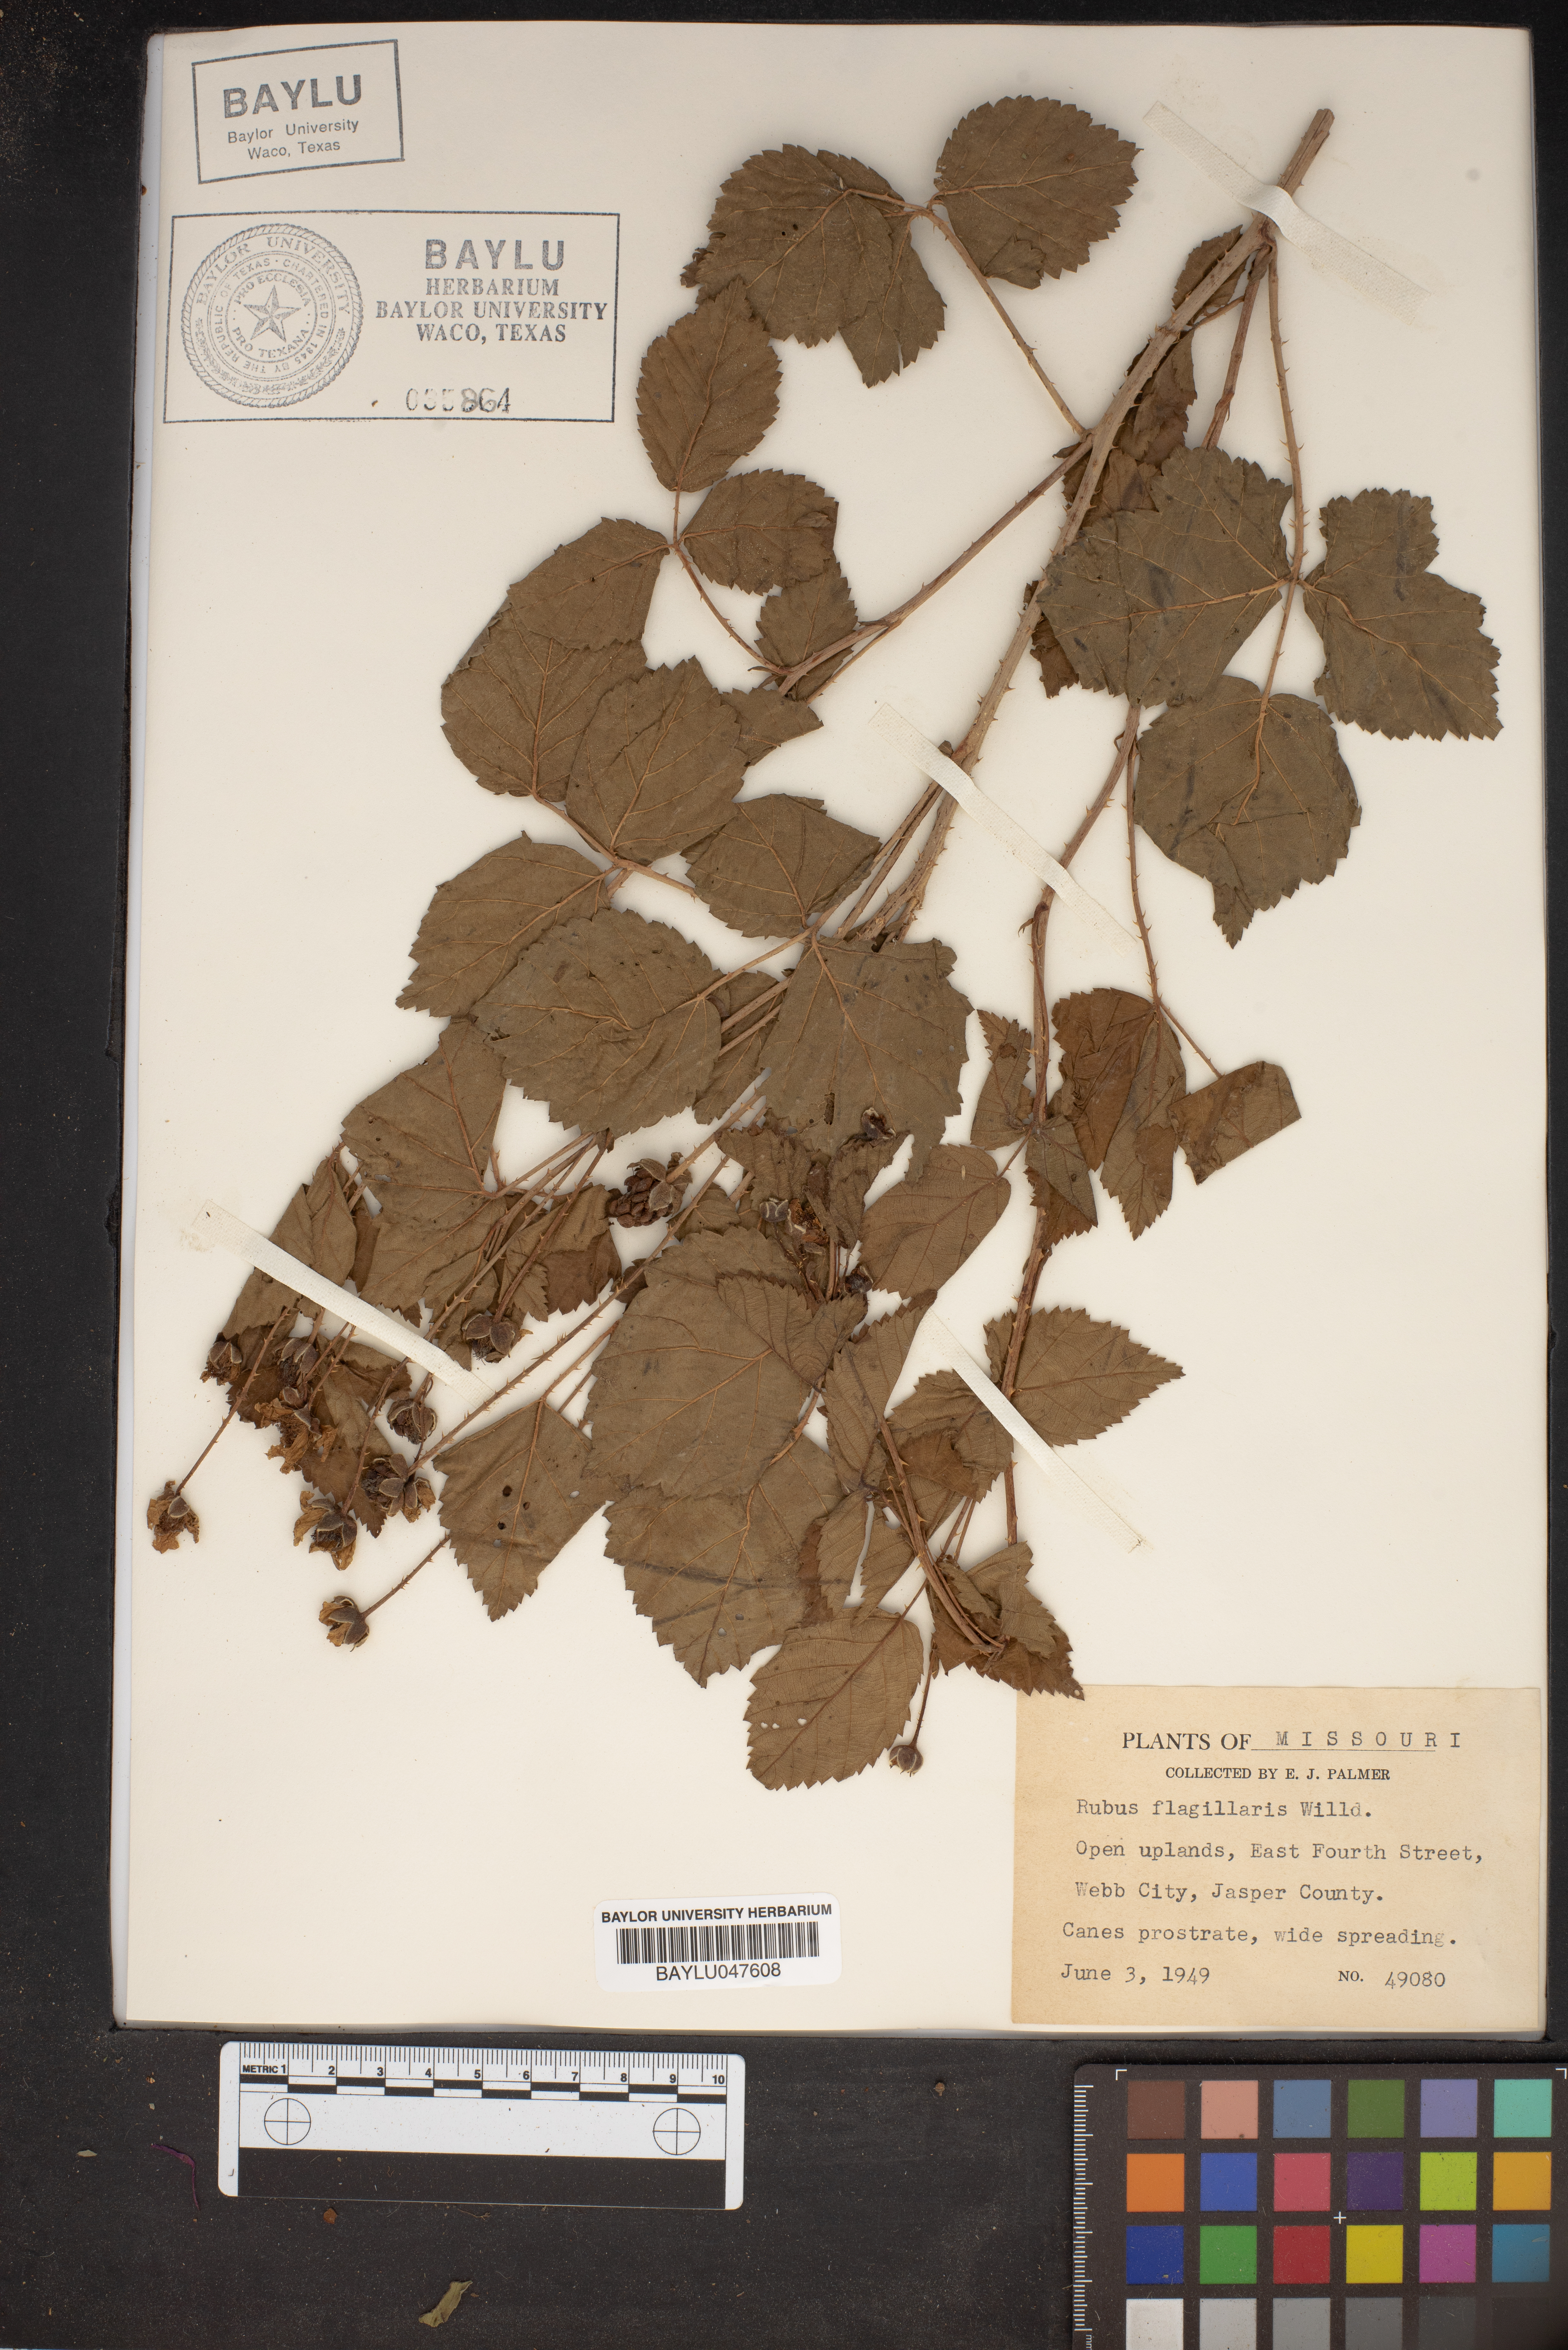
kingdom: Plantae
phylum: Tracheophyta
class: Magnoliopsida
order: Rosales
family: Rosaceae
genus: Rubus
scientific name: Rubus flagellaris
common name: American dewberry
